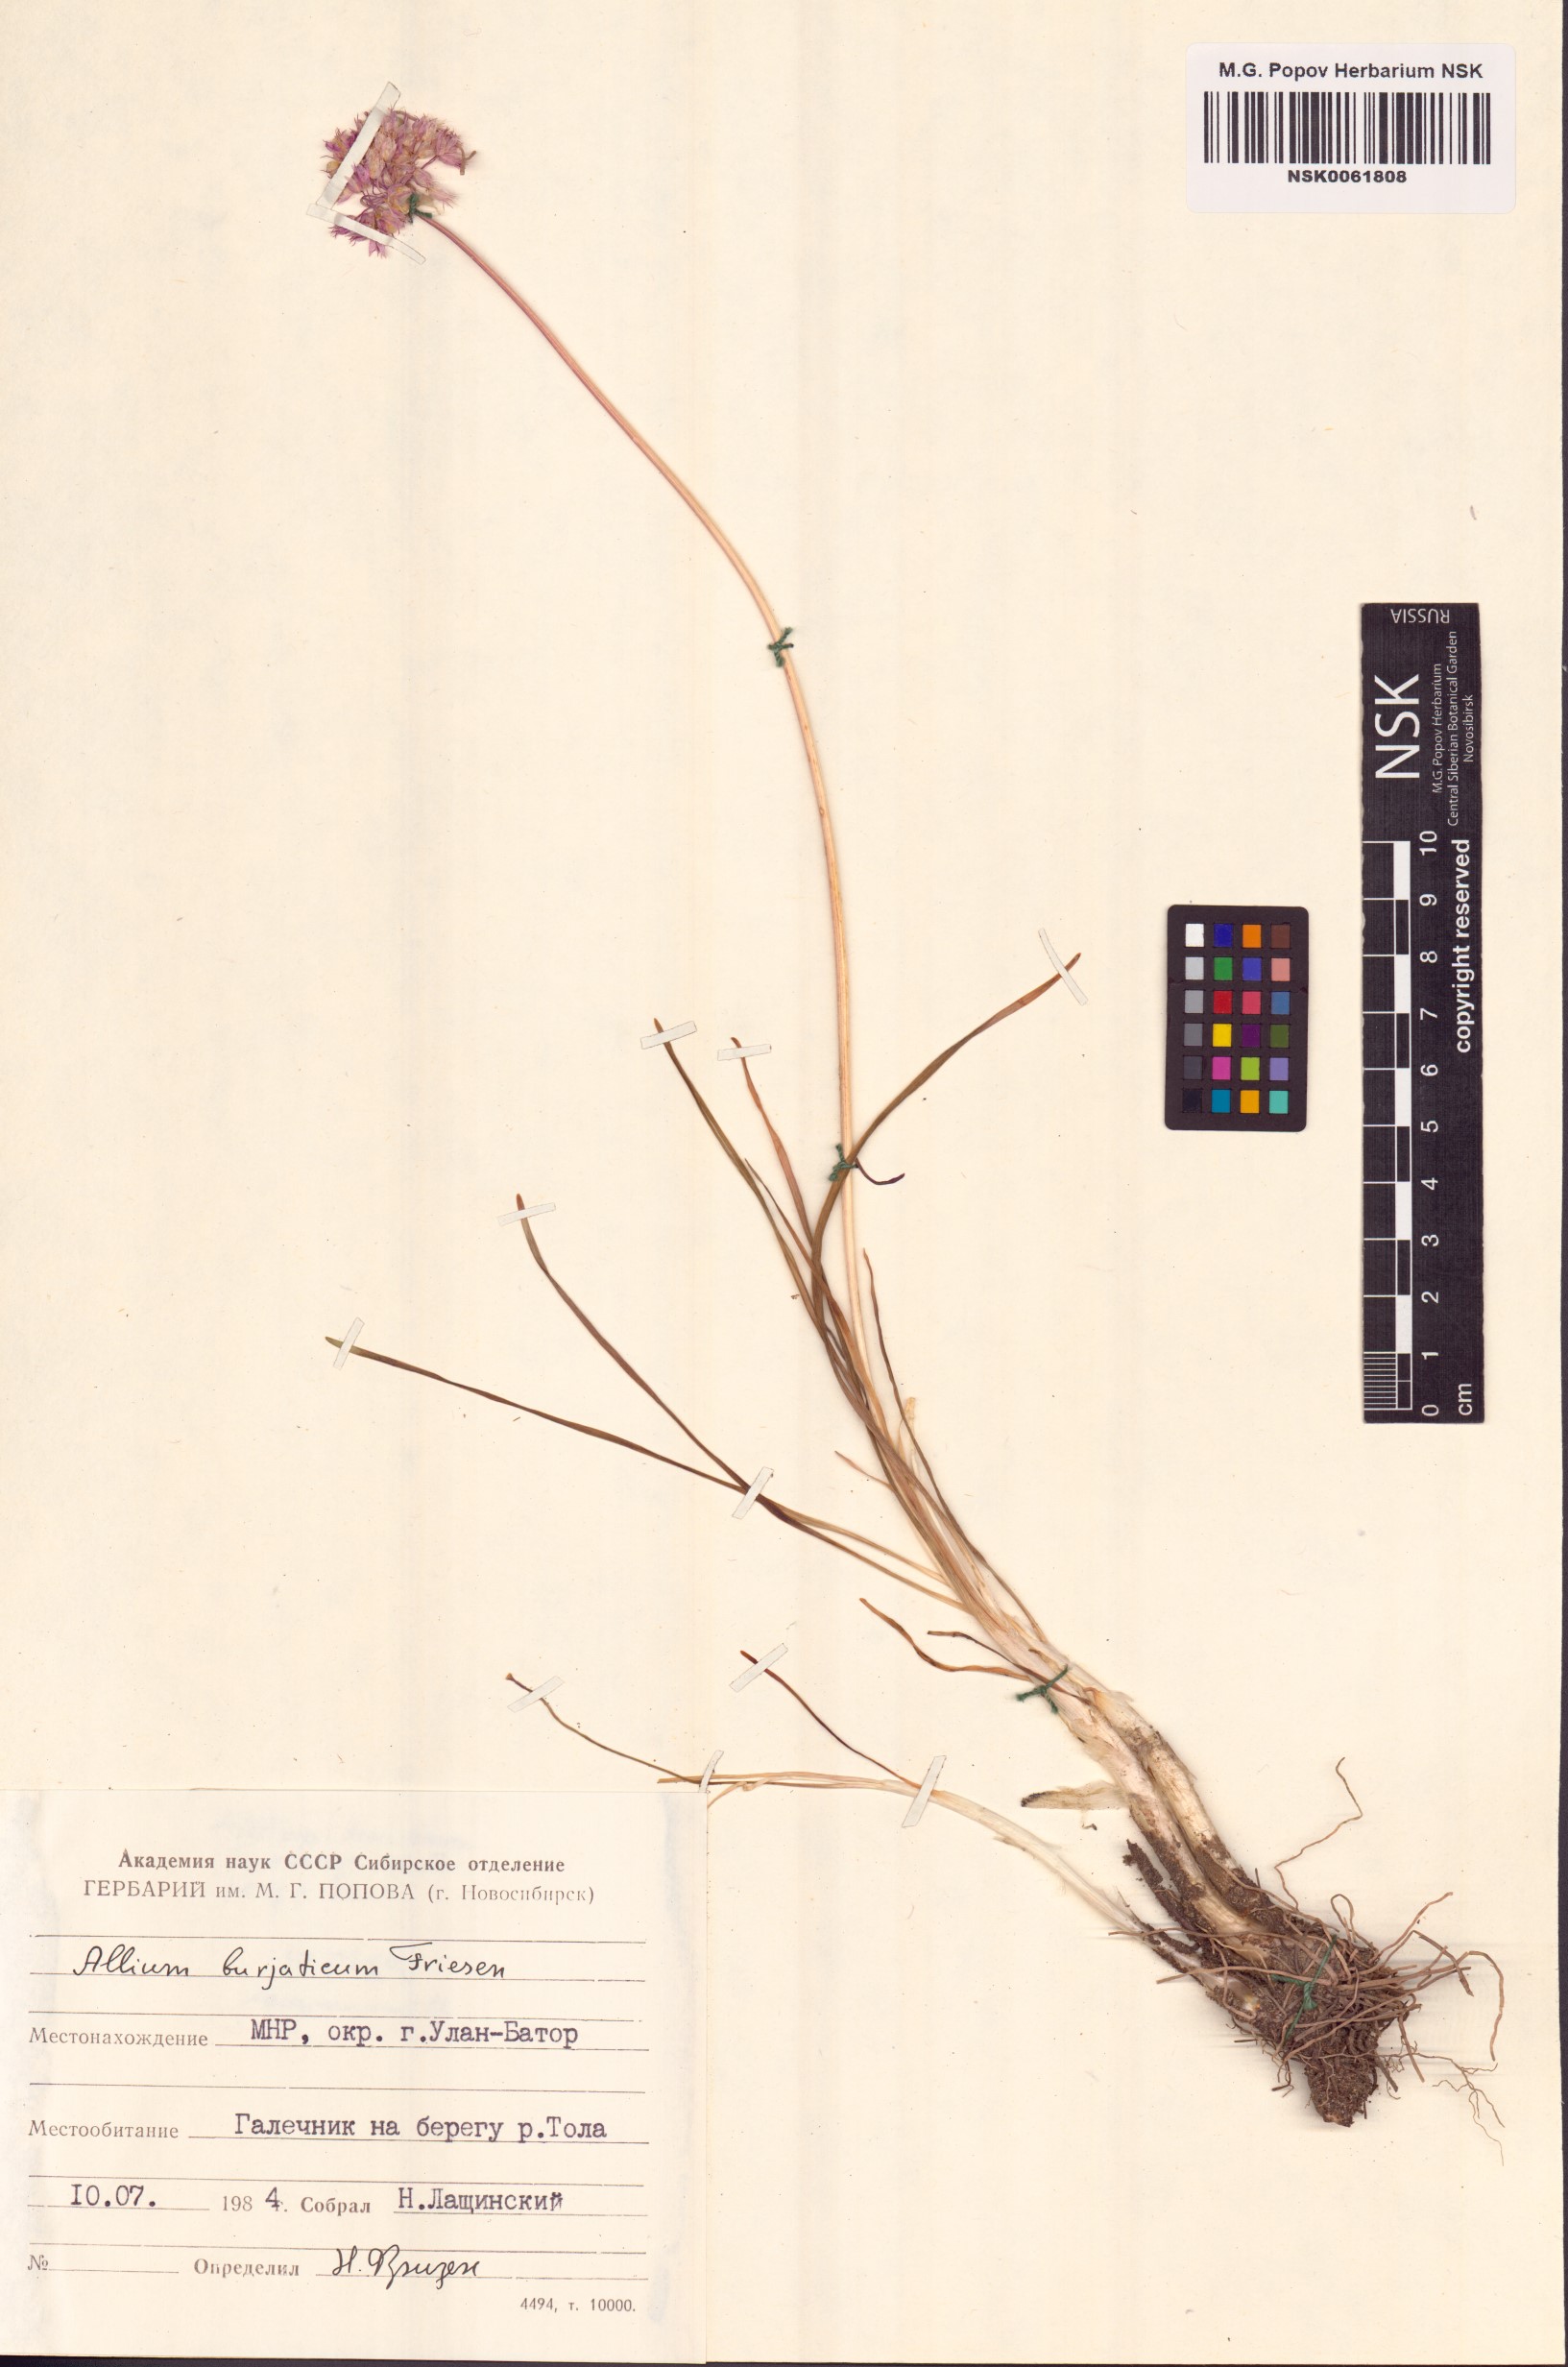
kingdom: Plantae
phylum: Tracheophyta
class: Liliopsida
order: Asparagales
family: Amaryllidaceae
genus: Allium
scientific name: Allium burjaticum
